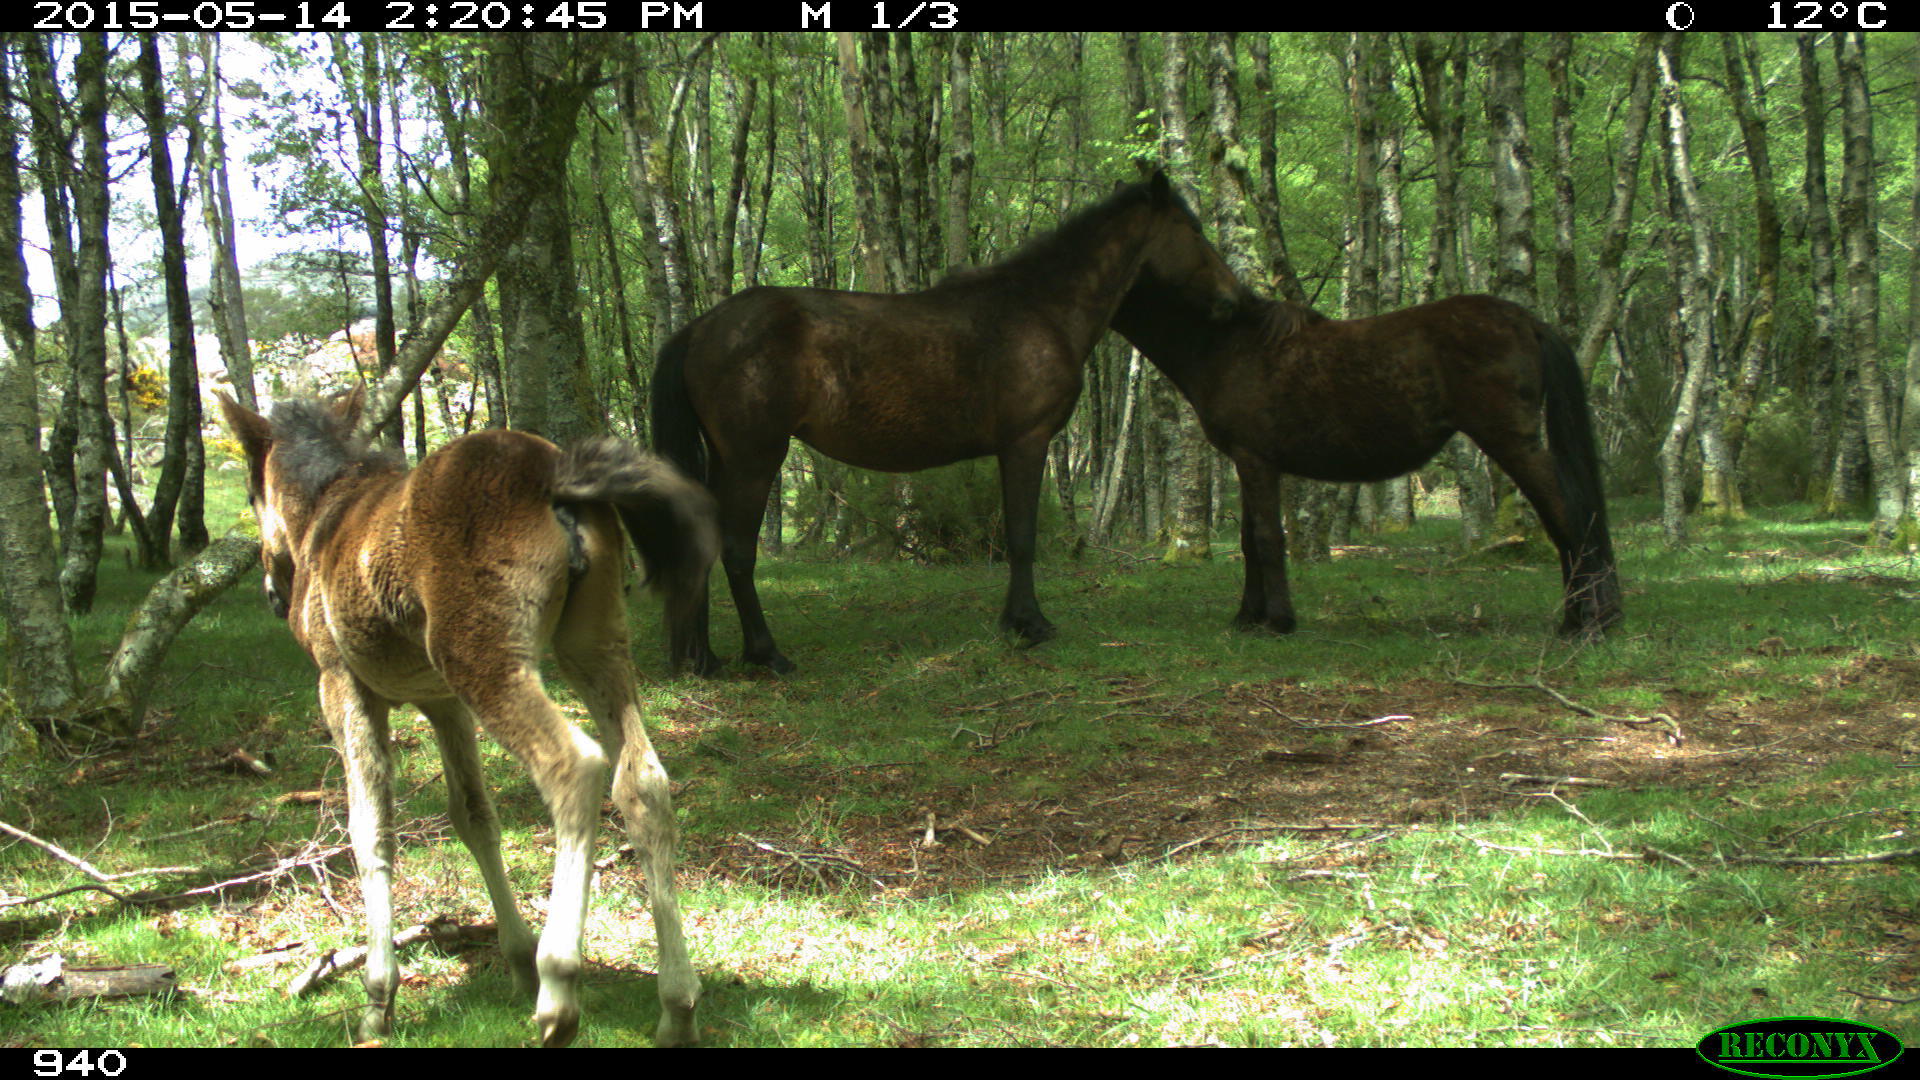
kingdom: Animalia
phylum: Chordata
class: Mammalia
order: Perissodactyla
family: Equidae
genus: Equus
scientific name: Equus caballus
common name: Horse
